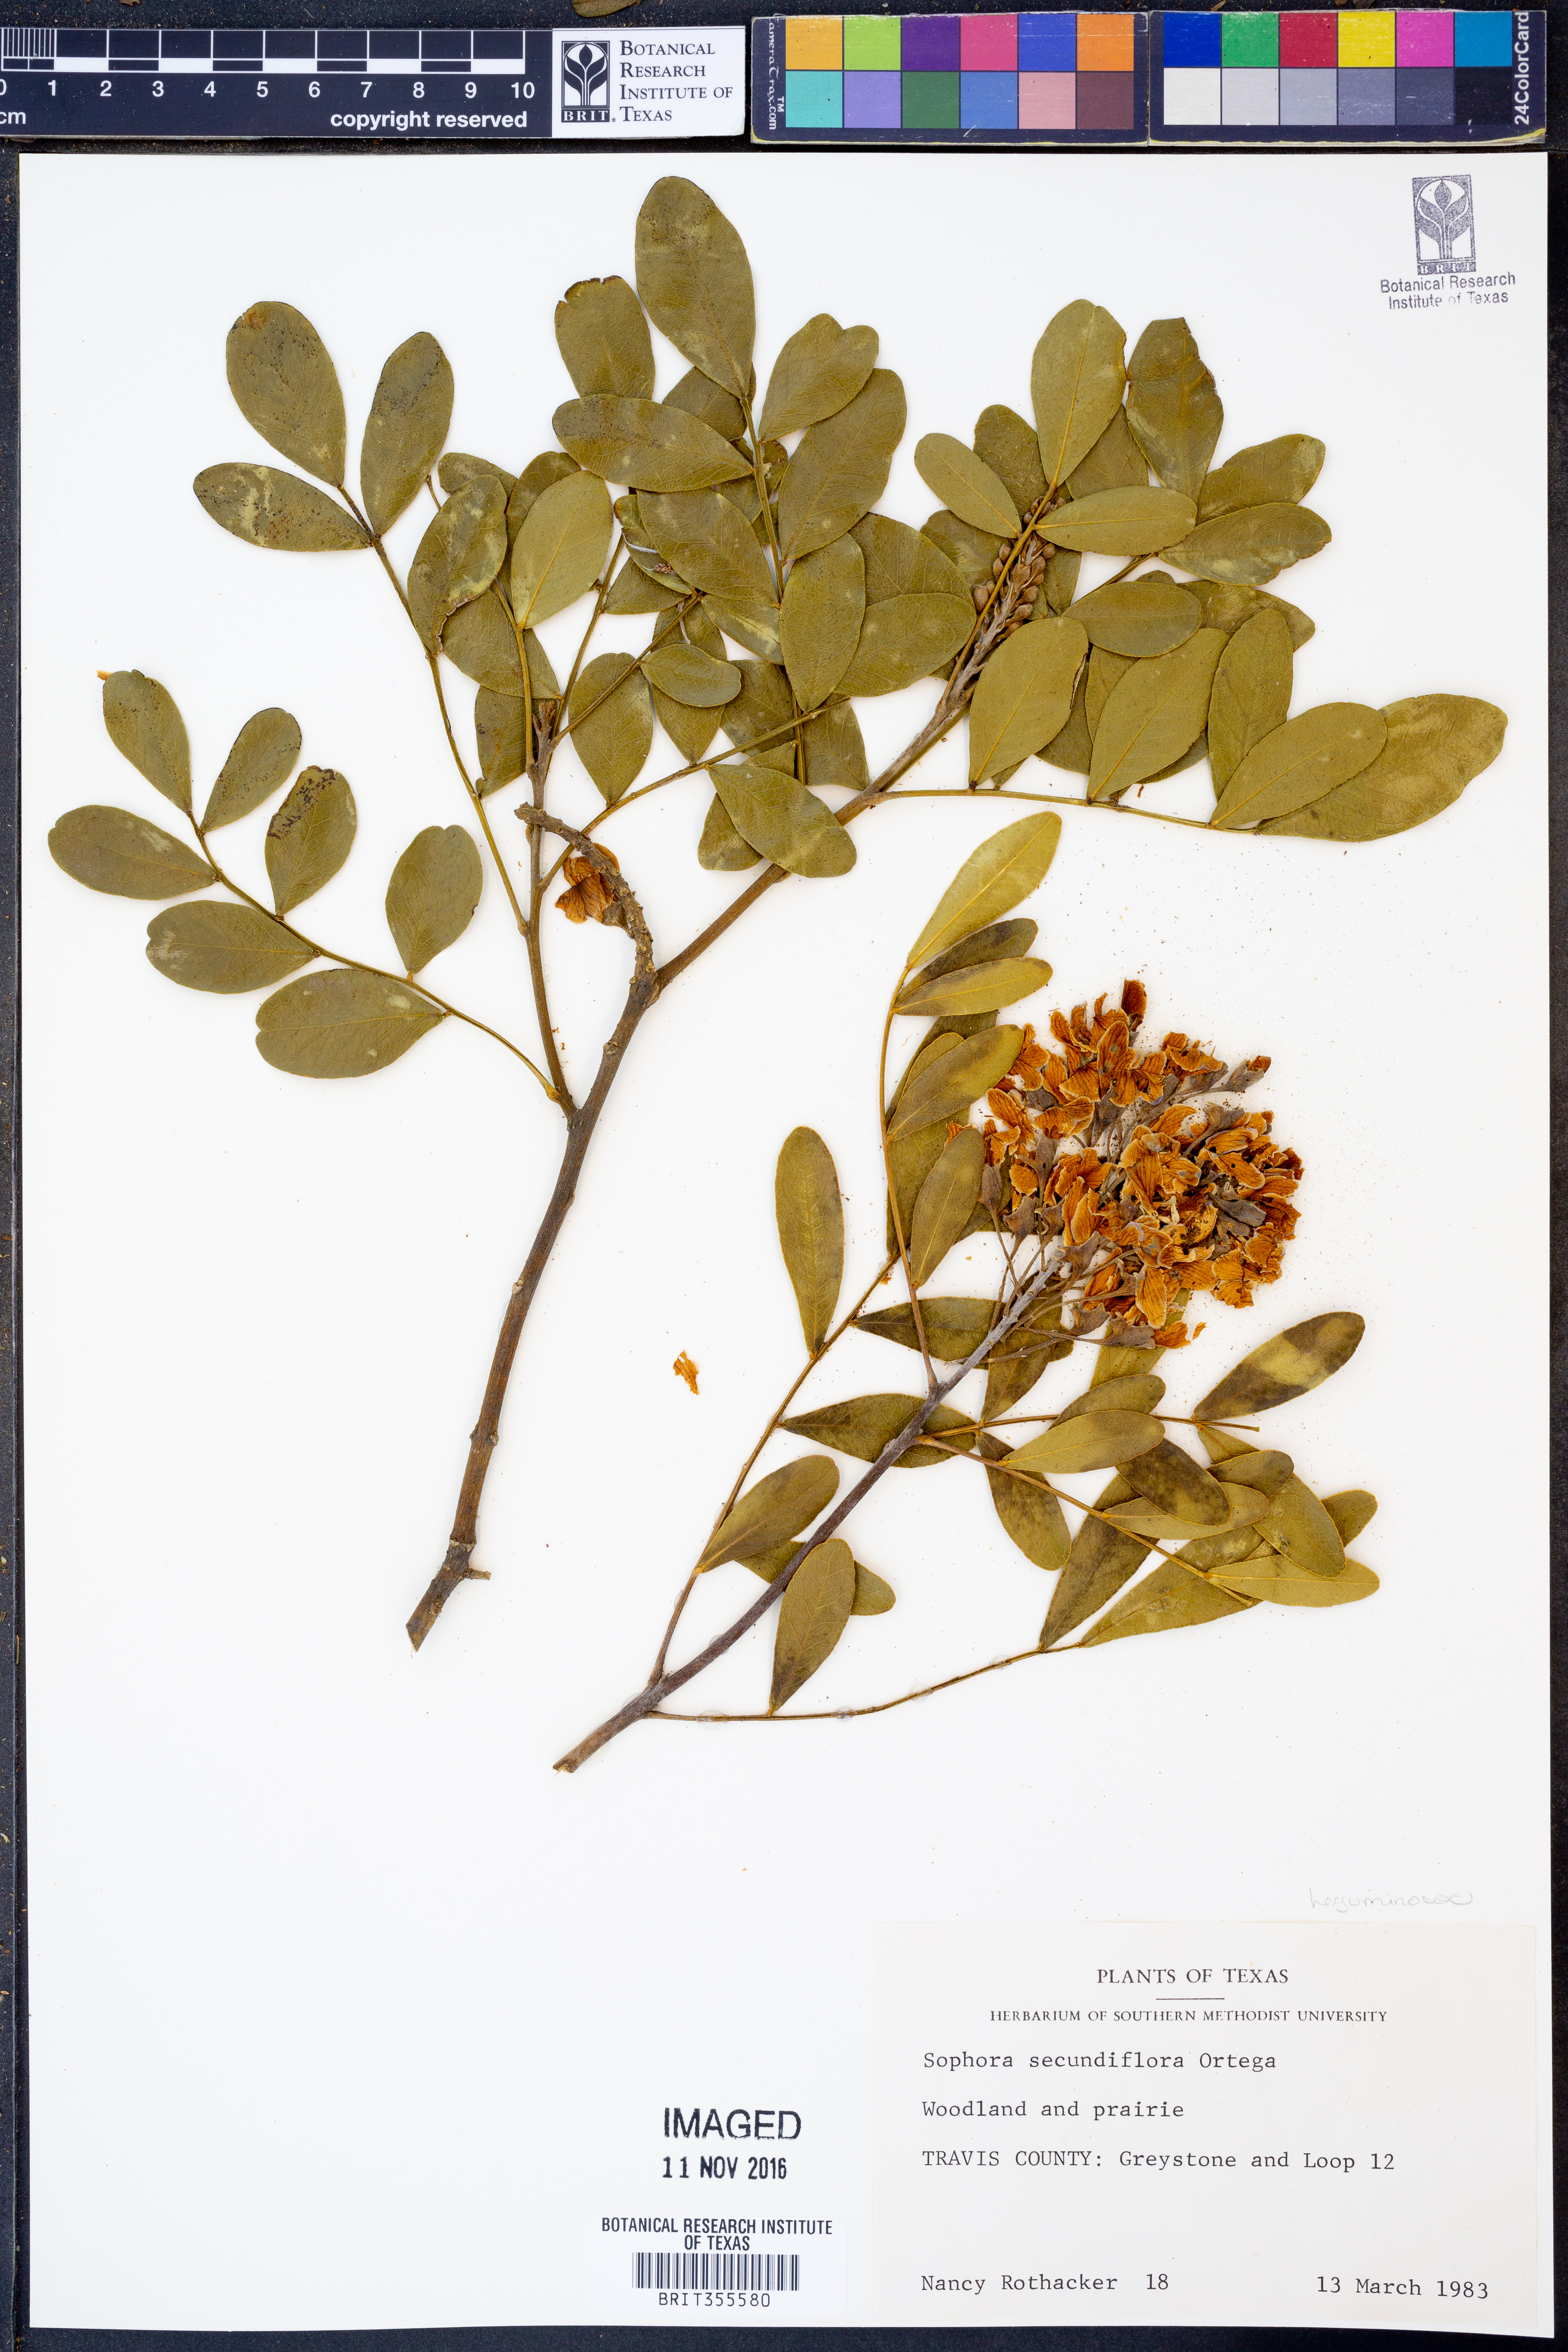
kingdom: Plantae
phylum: Tracheophyta
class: Magnoliopsida
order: Fabales
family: Fabaceae
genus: Dermatophyllum
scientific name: Dermatophyllum secundiflorum
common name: Texas-mountain-laurel
